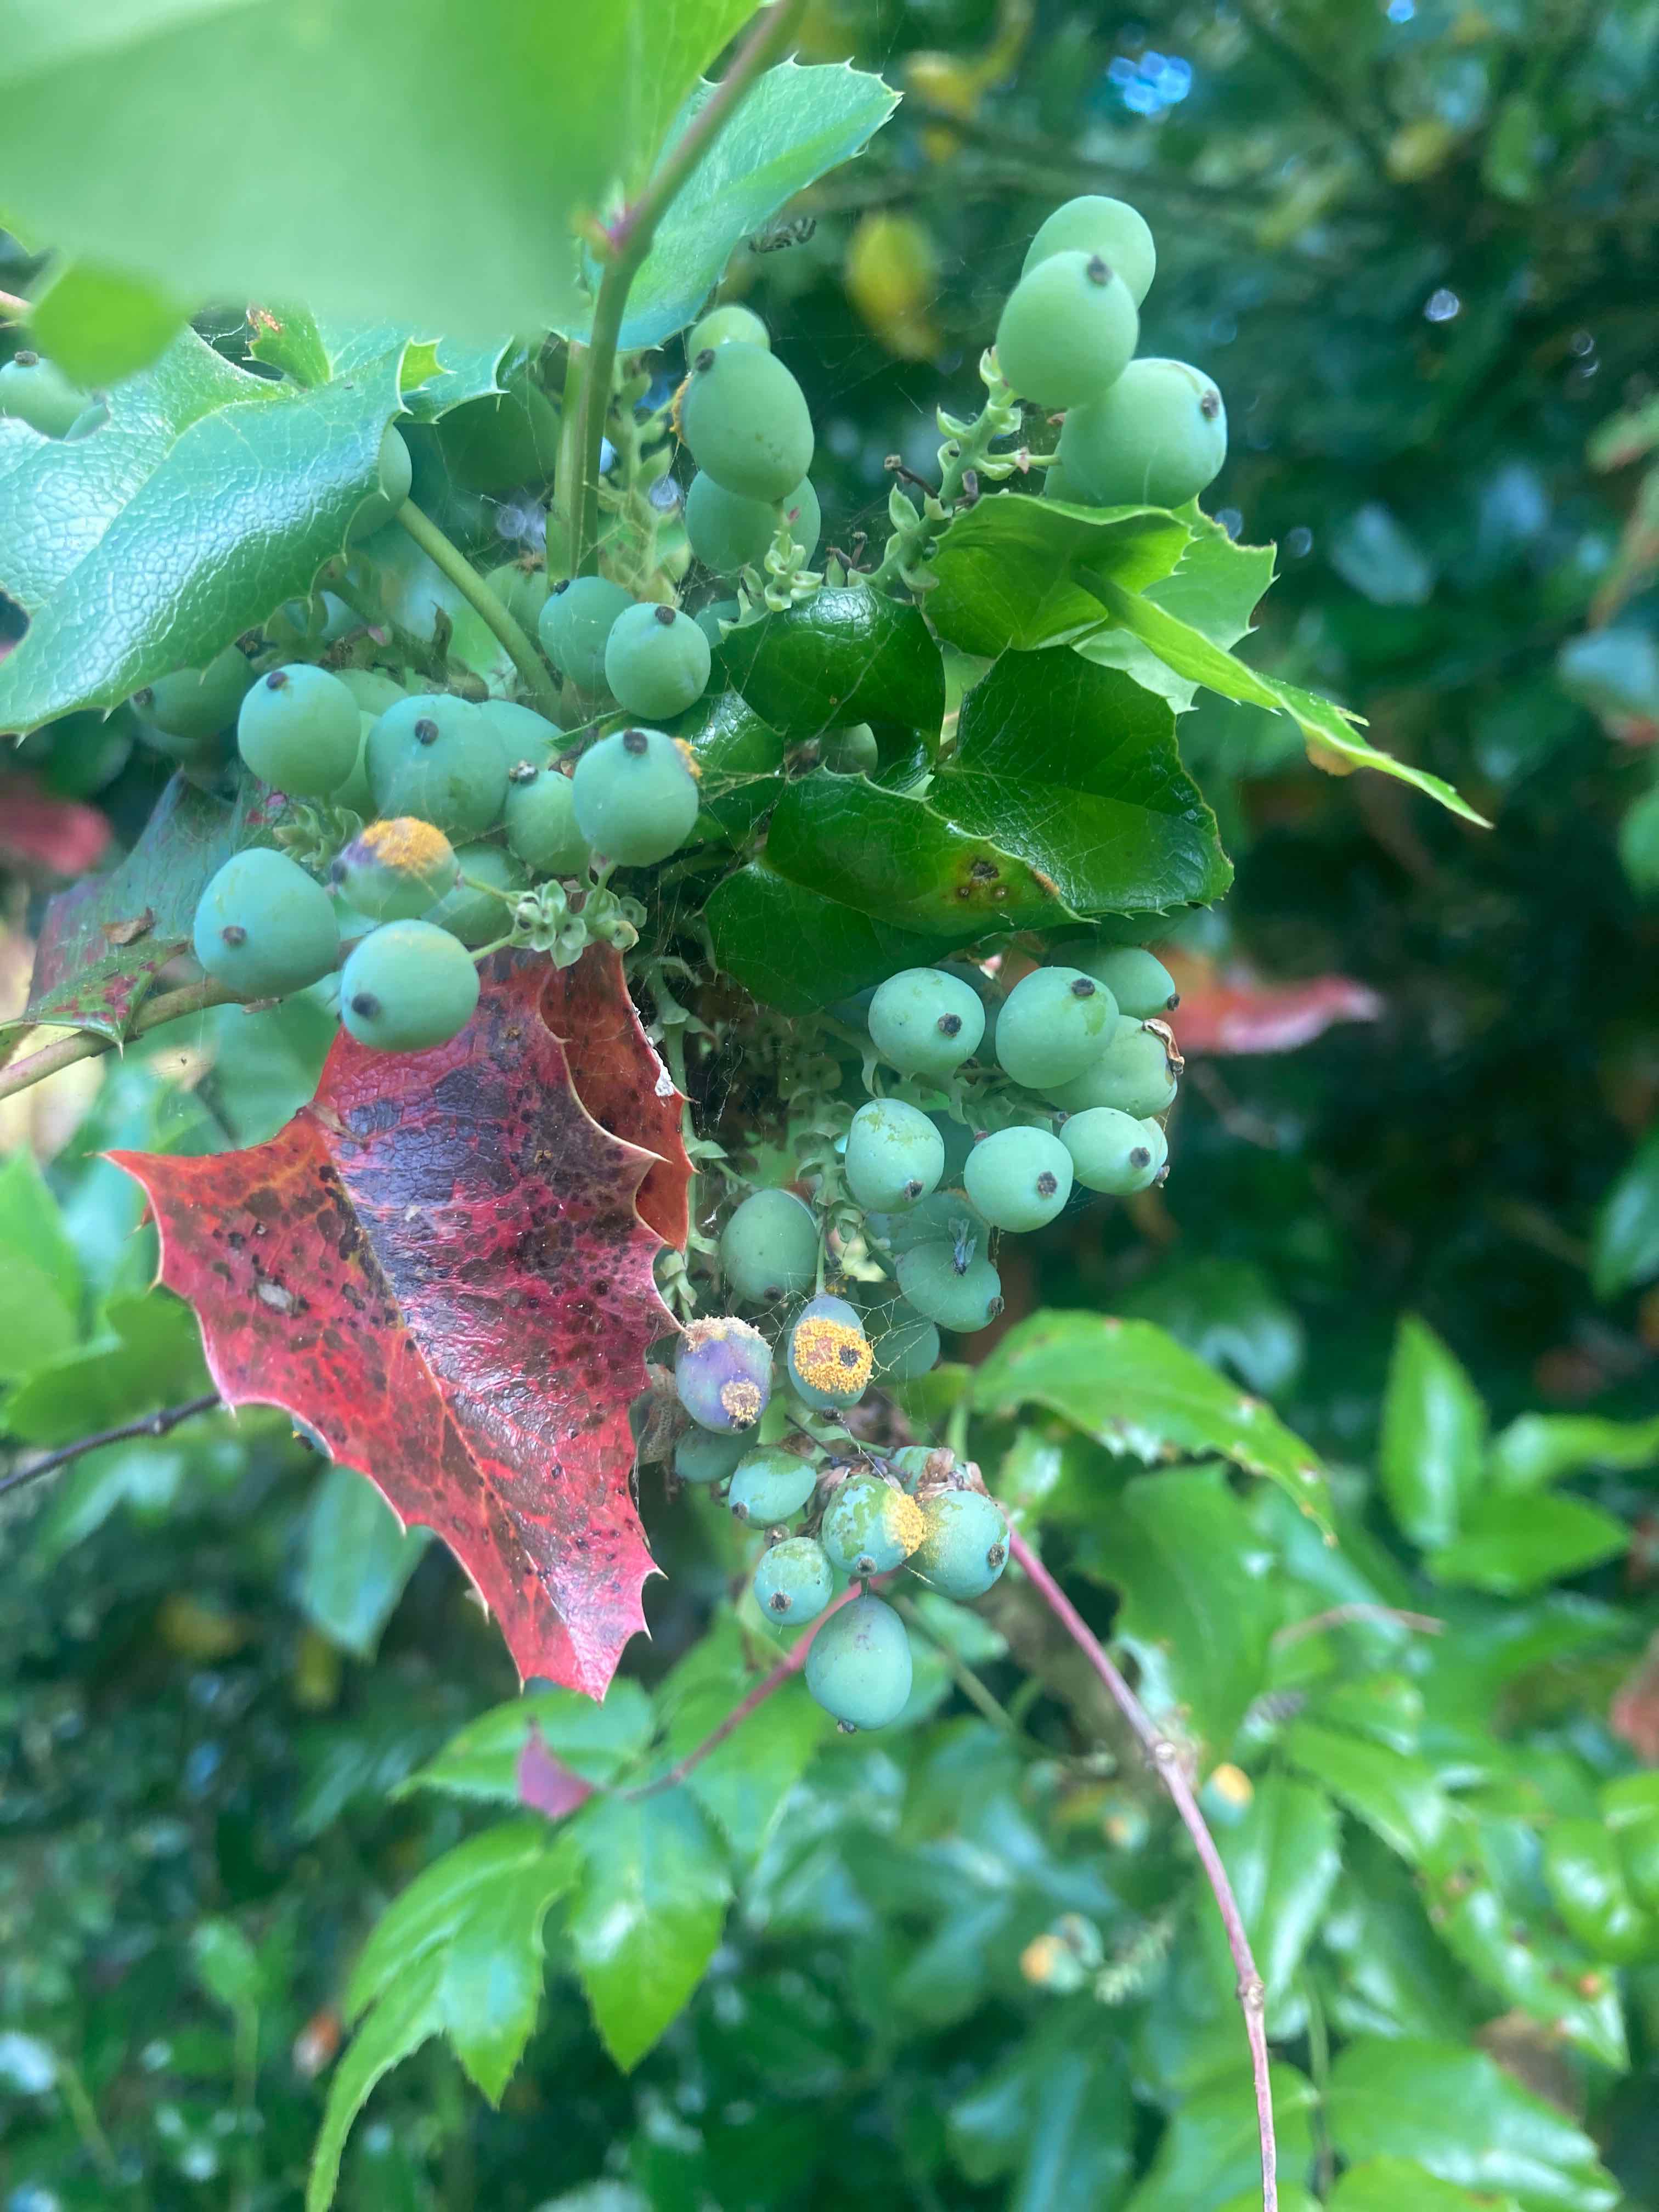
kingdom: Fungi
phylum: Basidiomycota
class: Pucciniomycetes
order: Pucciniales
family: Pucciniaceae
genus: Cumminsiella
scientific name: Cumminsiella mirabilissima
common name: mahonierust
